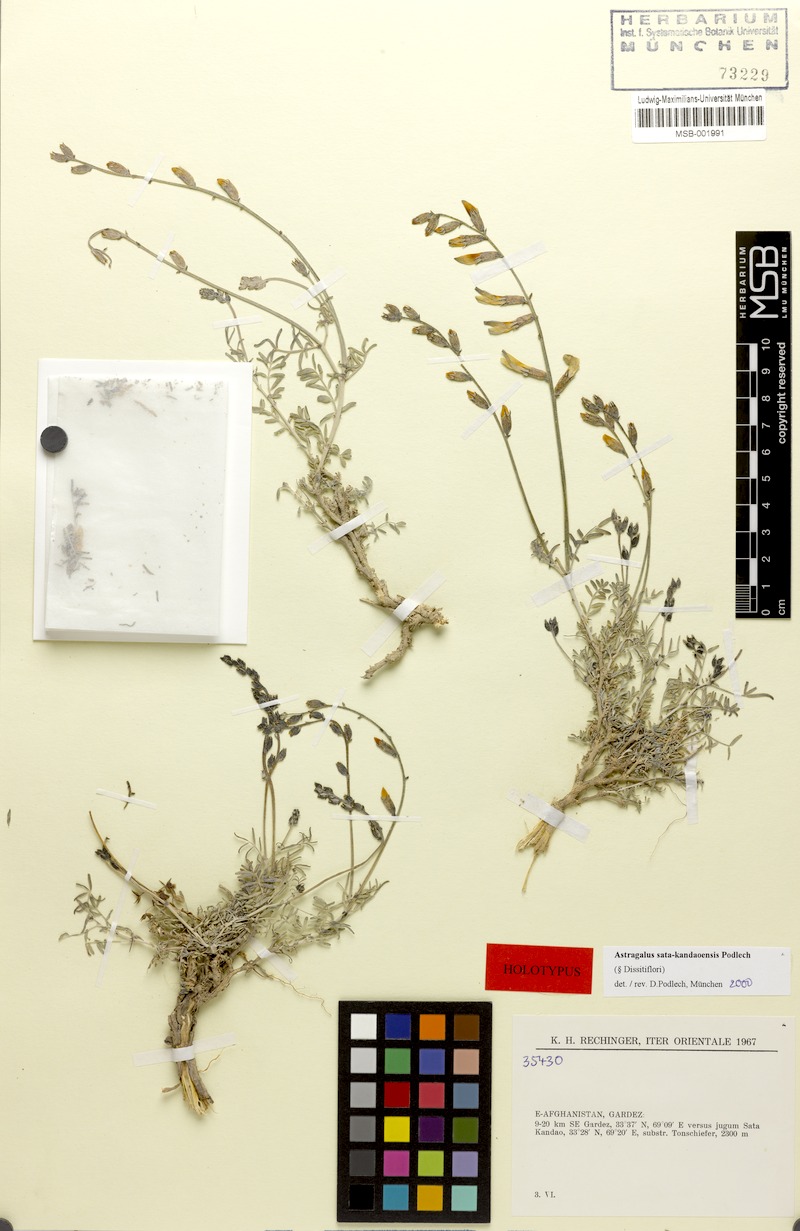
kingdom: Plantae
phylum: Tracheophyta
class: Magnoliopsida
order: Fabales
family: Fabaceae
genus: Astragalus
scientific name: Astragalus sata-kandaoensis
